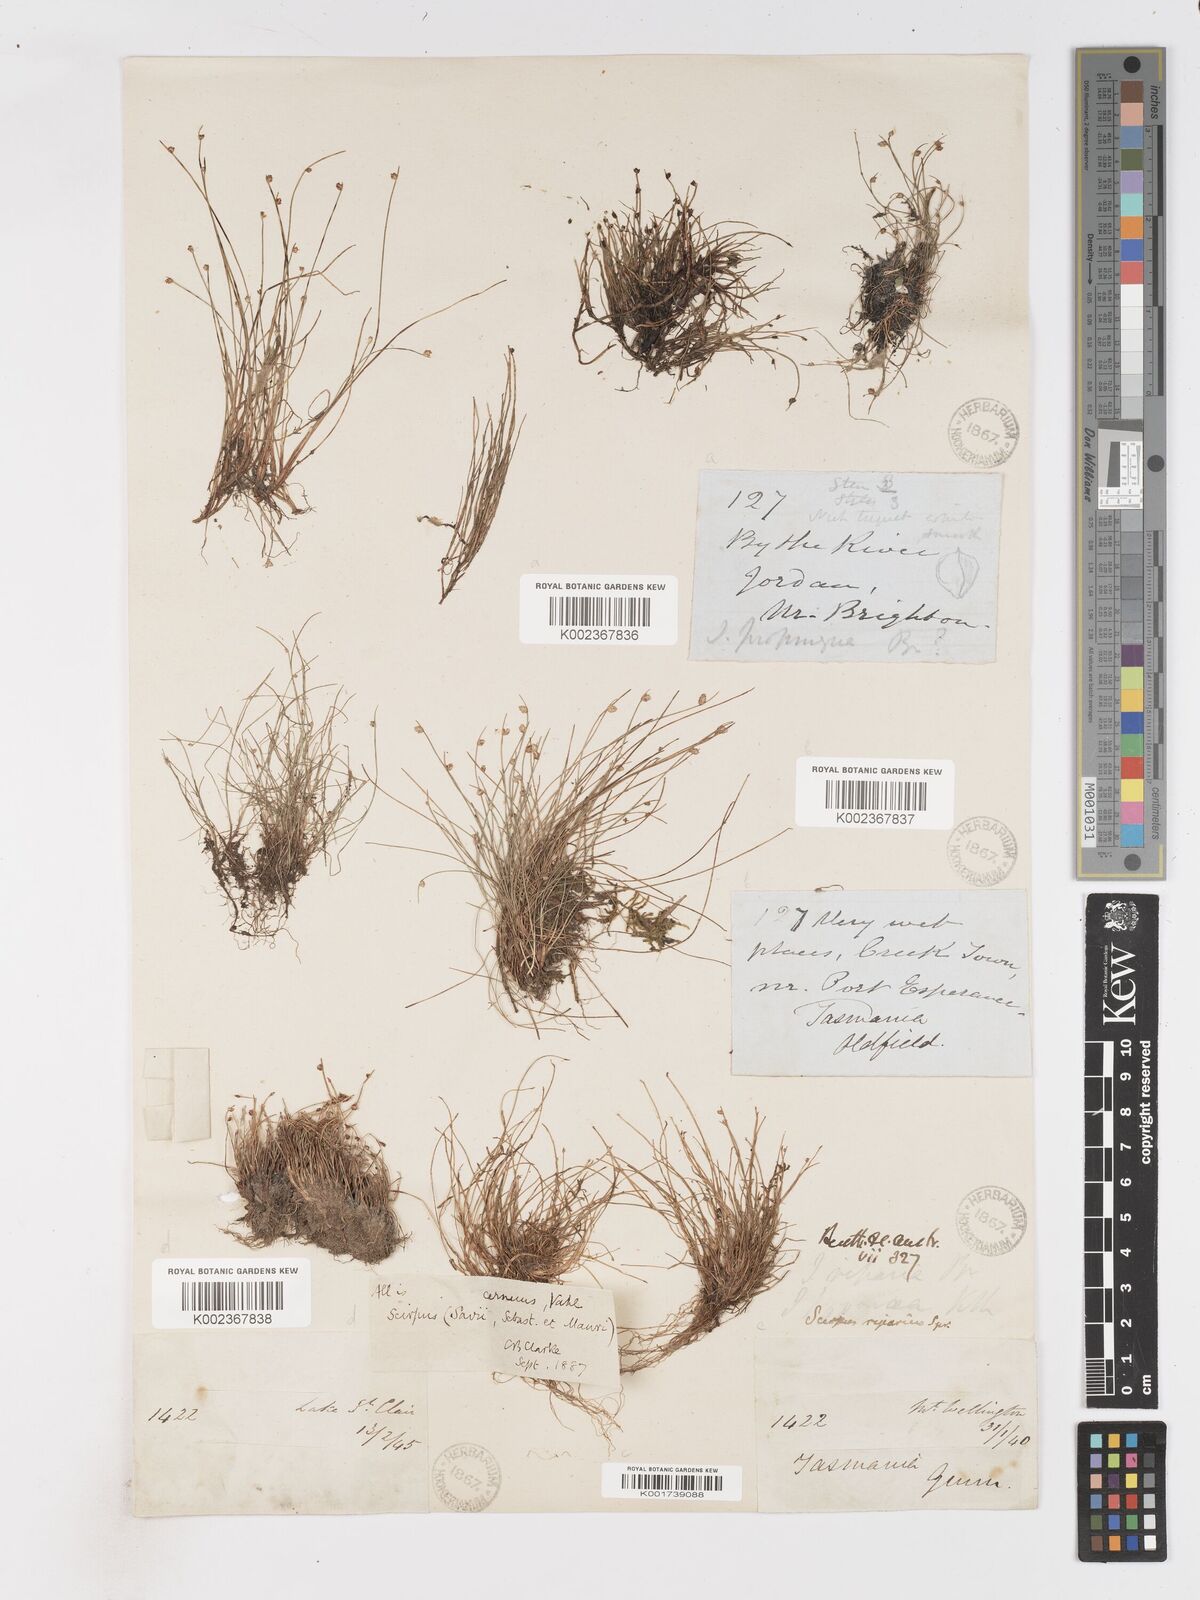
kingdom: Plantae
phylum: Tracheophyta
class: Liliopsida
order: Poales
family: Cyperaceae
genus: Isolepis
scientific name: Isolepis cernua
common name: Slender club-rush
